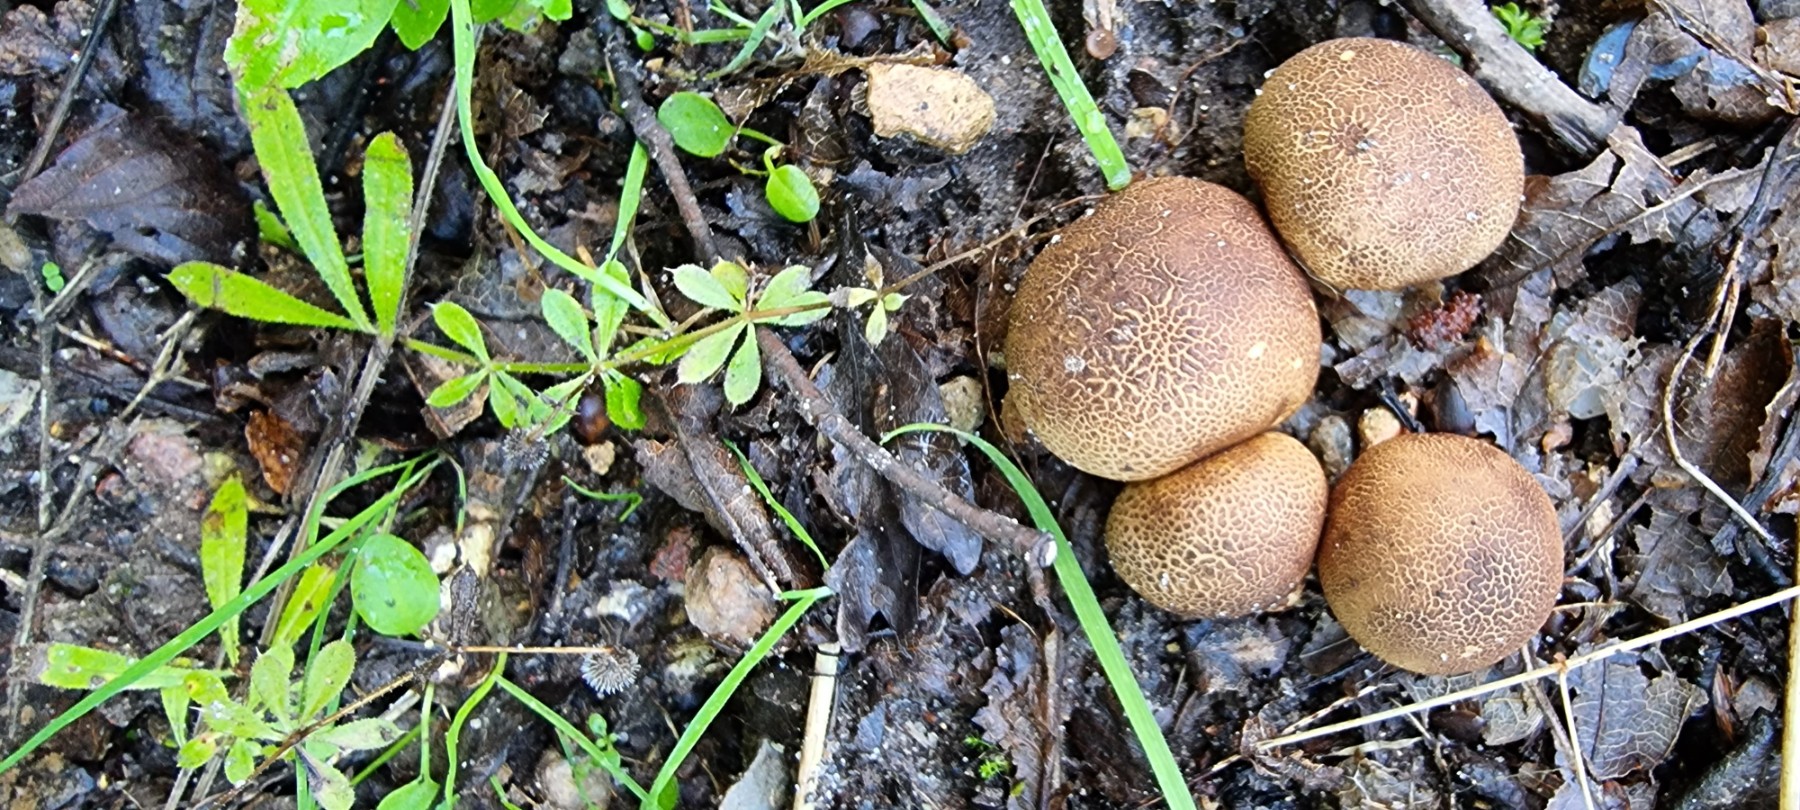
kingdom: Fungi
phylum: Basidiomycota
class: Agaricomycetes
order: Boletales
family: Sclerodermataceae
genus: Scleroderma
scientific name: Scleroderma areolatum
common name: plettet bruskbold
